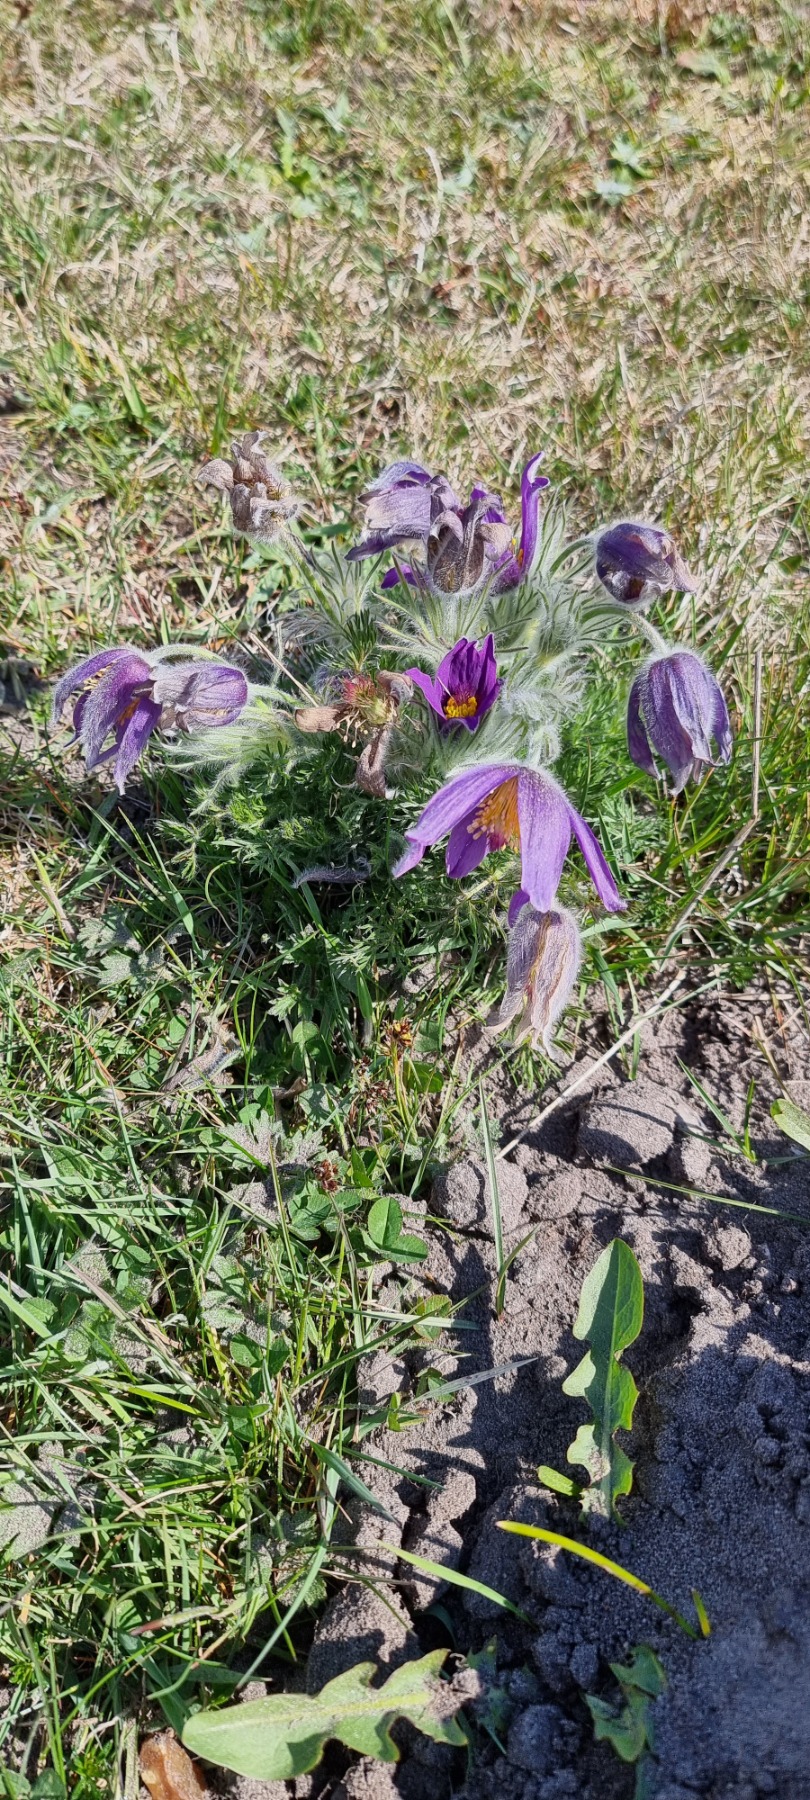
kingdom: Plantae
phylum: Tracheophyta
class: Magnoliopsida
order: Ranunculales
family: Ranunculaceae
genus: Pulsatilla
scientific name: Pulsatilla vulgaris
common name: Opret kobjælde
